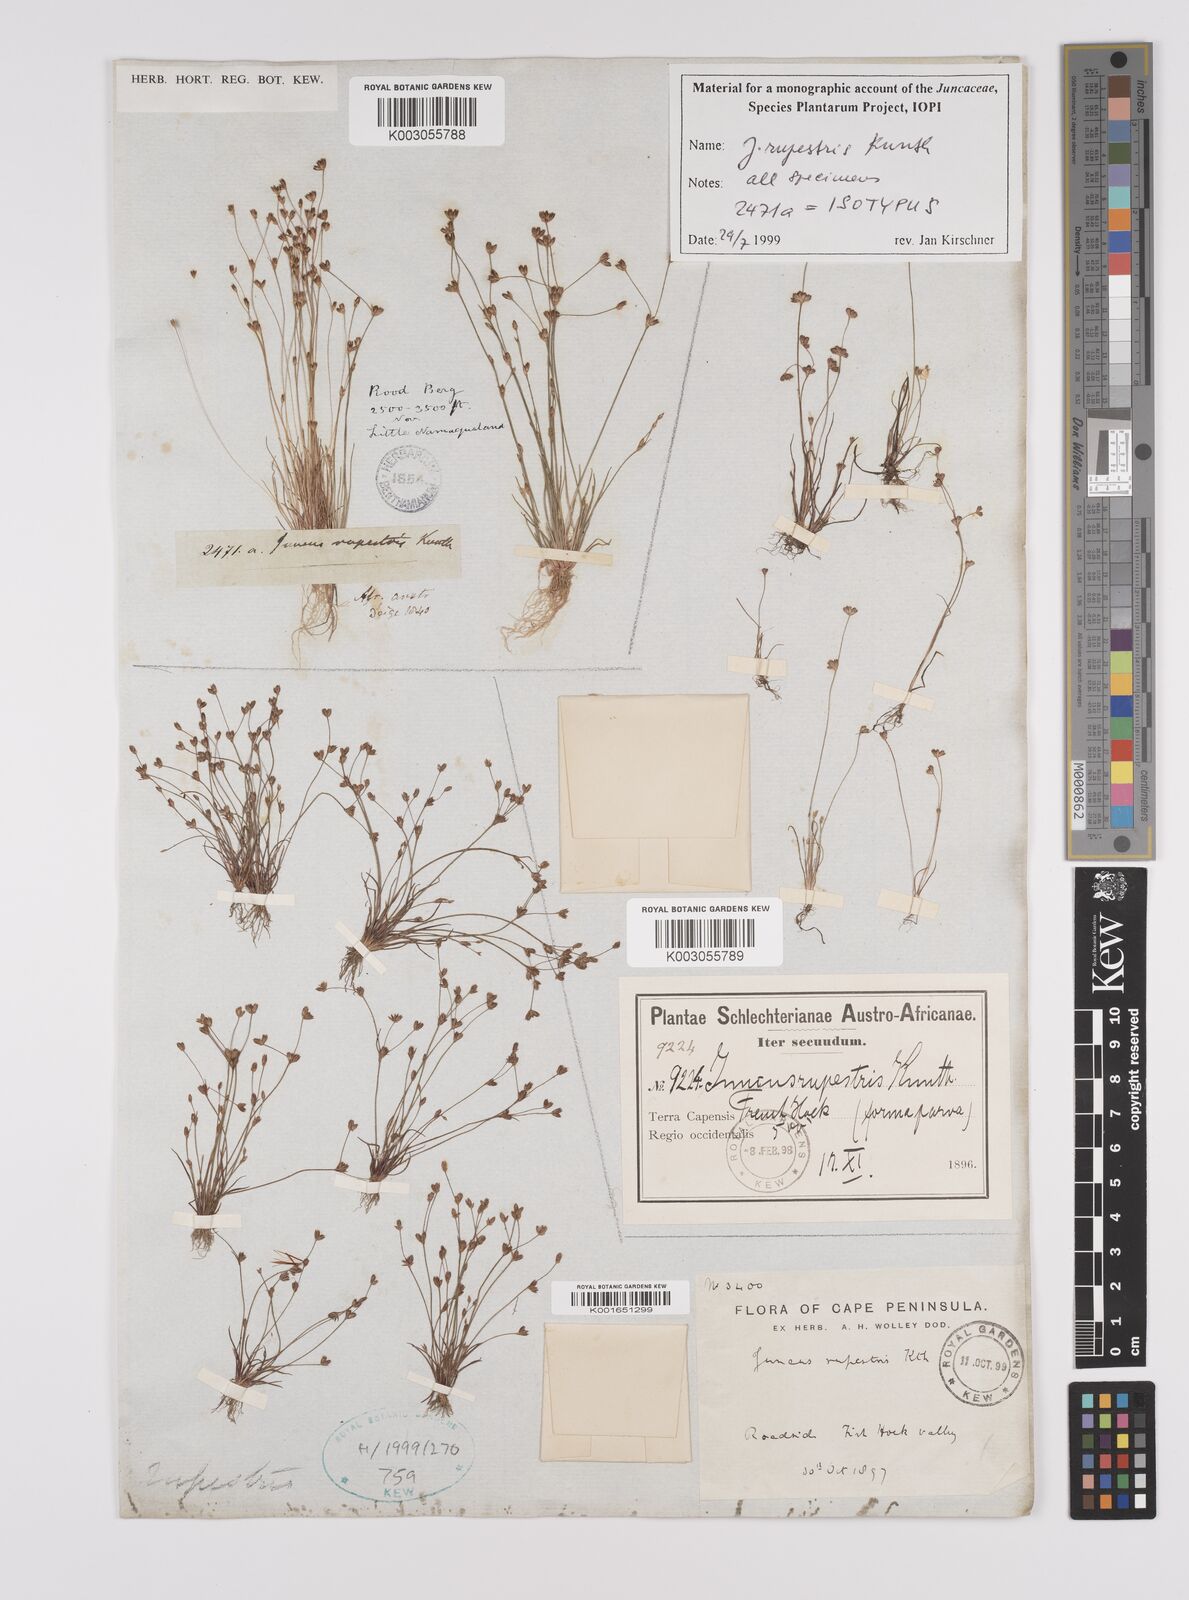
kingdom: Plantae
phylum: Tracheophyta
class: Liliopsida
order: Poales
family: Juncaceae
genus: Juncus
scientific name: Juncus rupestris
